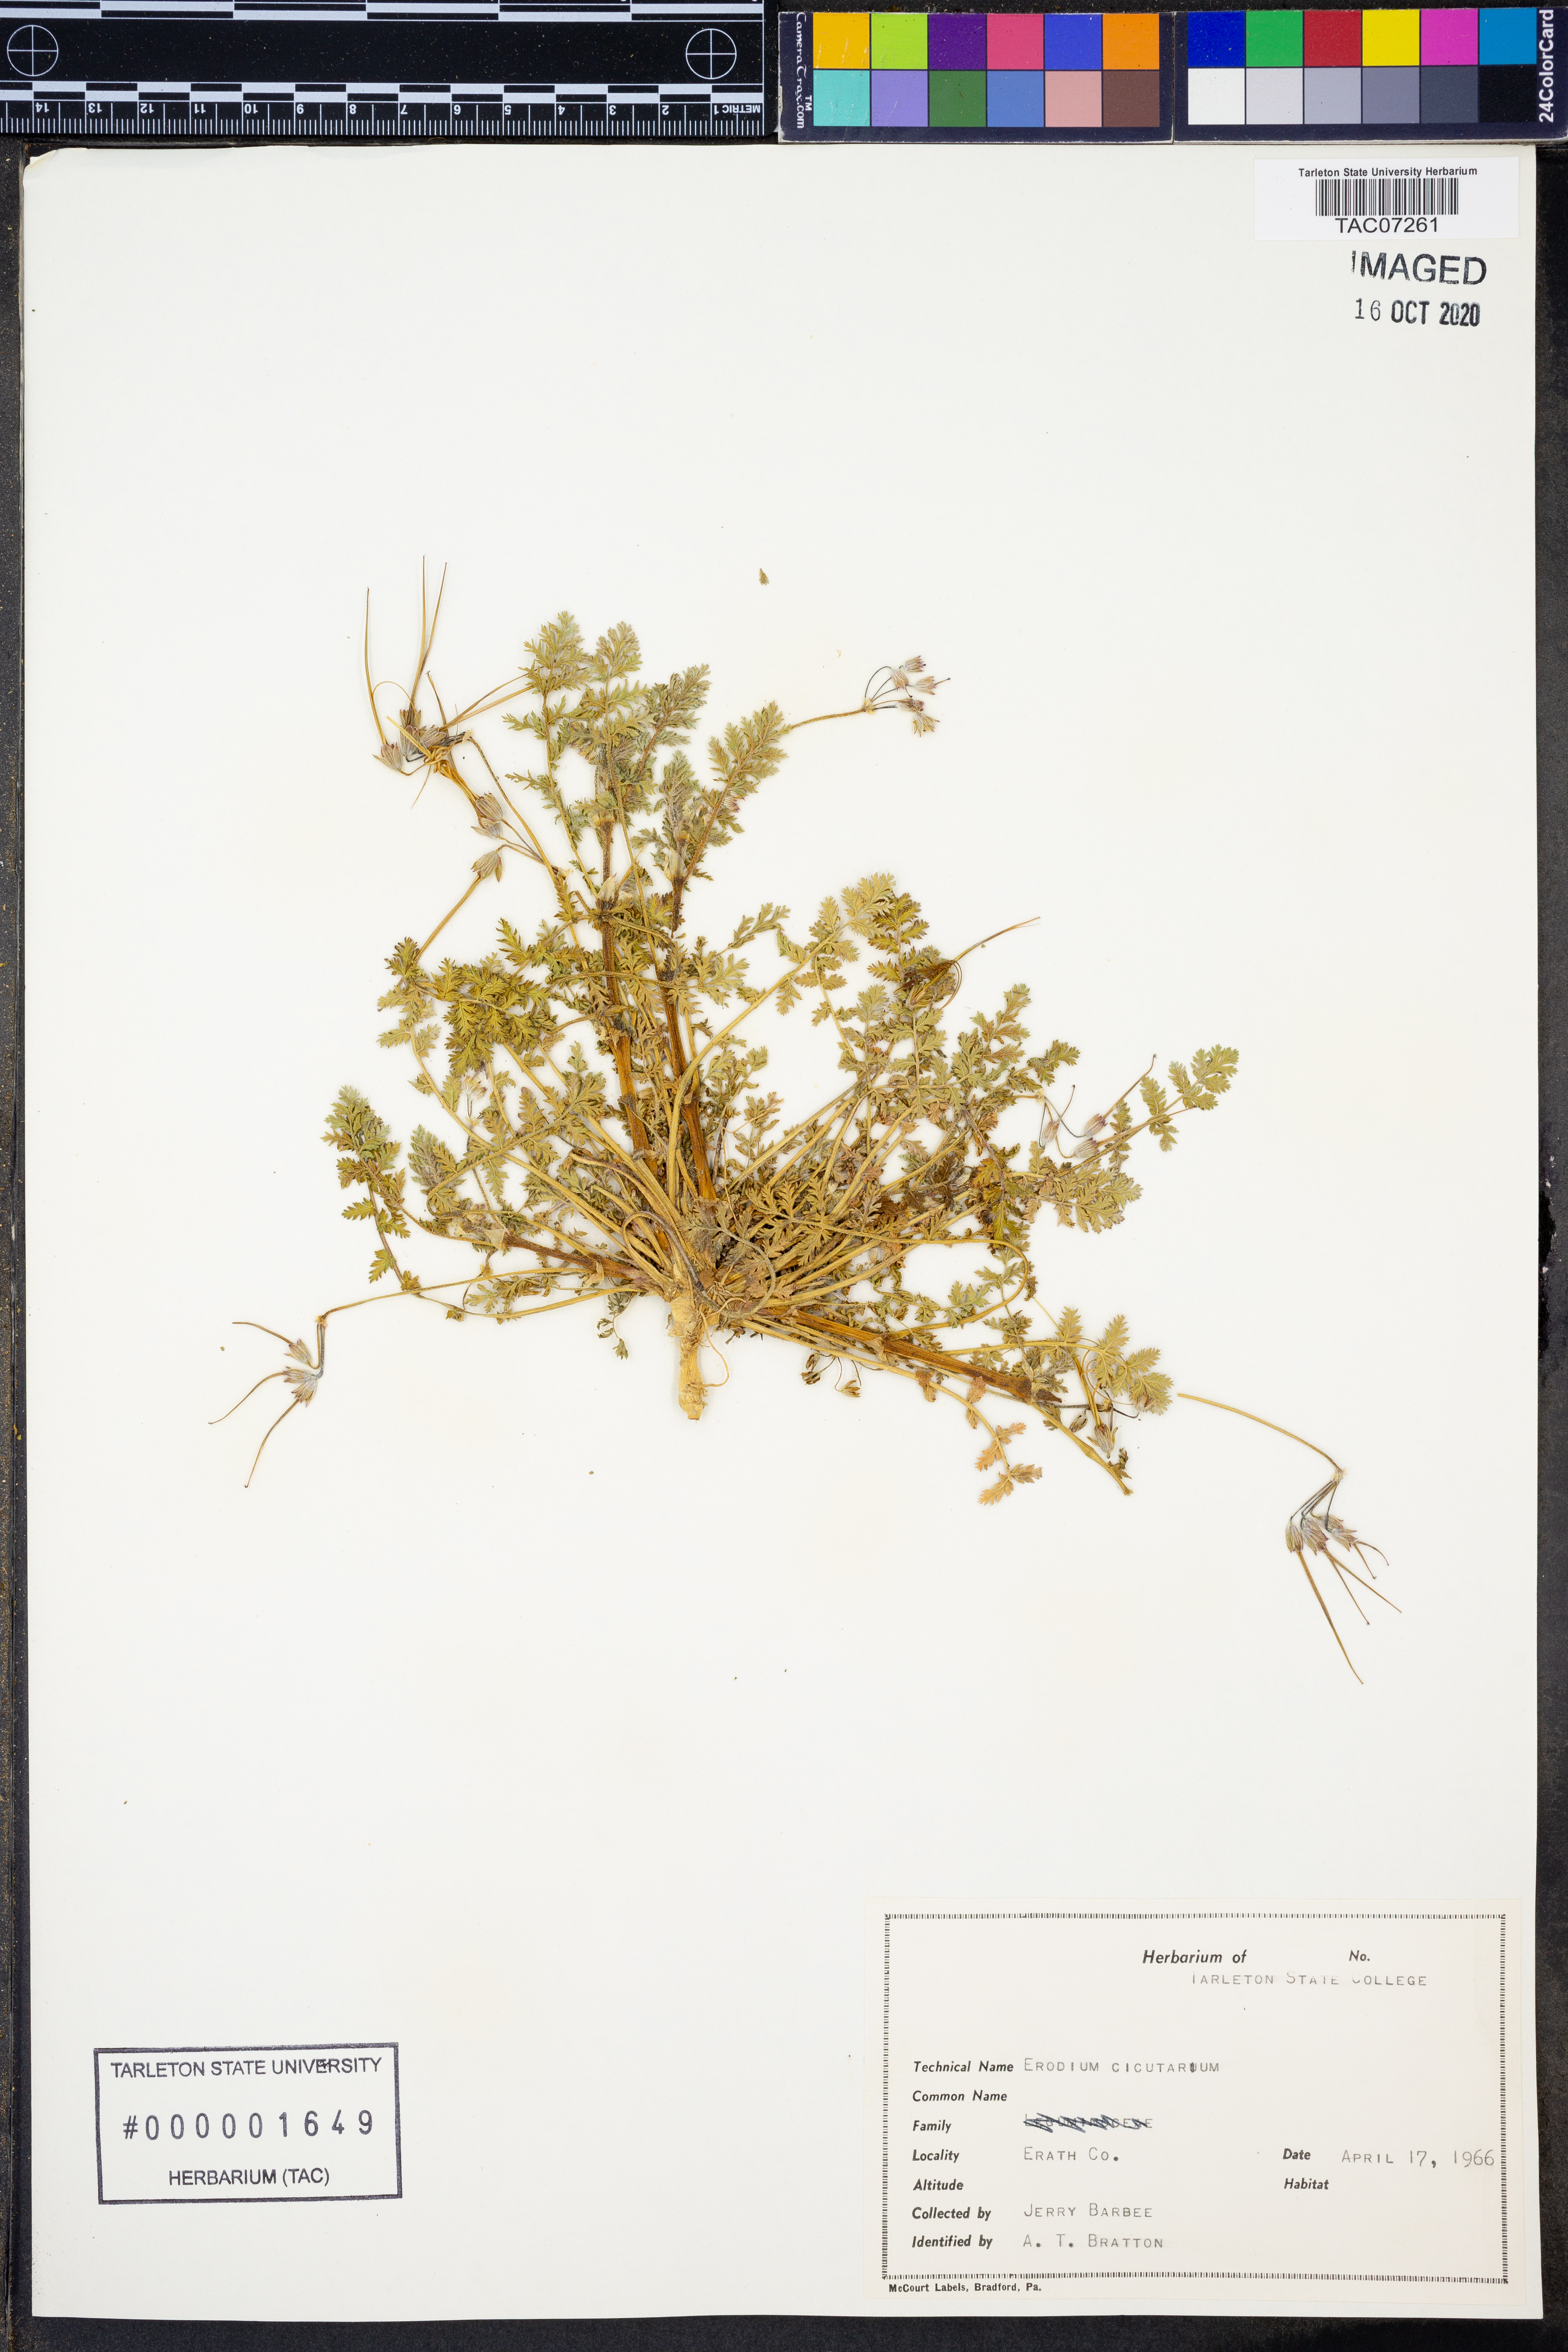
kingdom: Plantae
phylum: Tracheophyta
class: Magnoliopsida
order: Geraniales
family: Geraniaceae
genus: Erodium
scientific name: Erodium cicutarium
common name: Common stork's-bill
